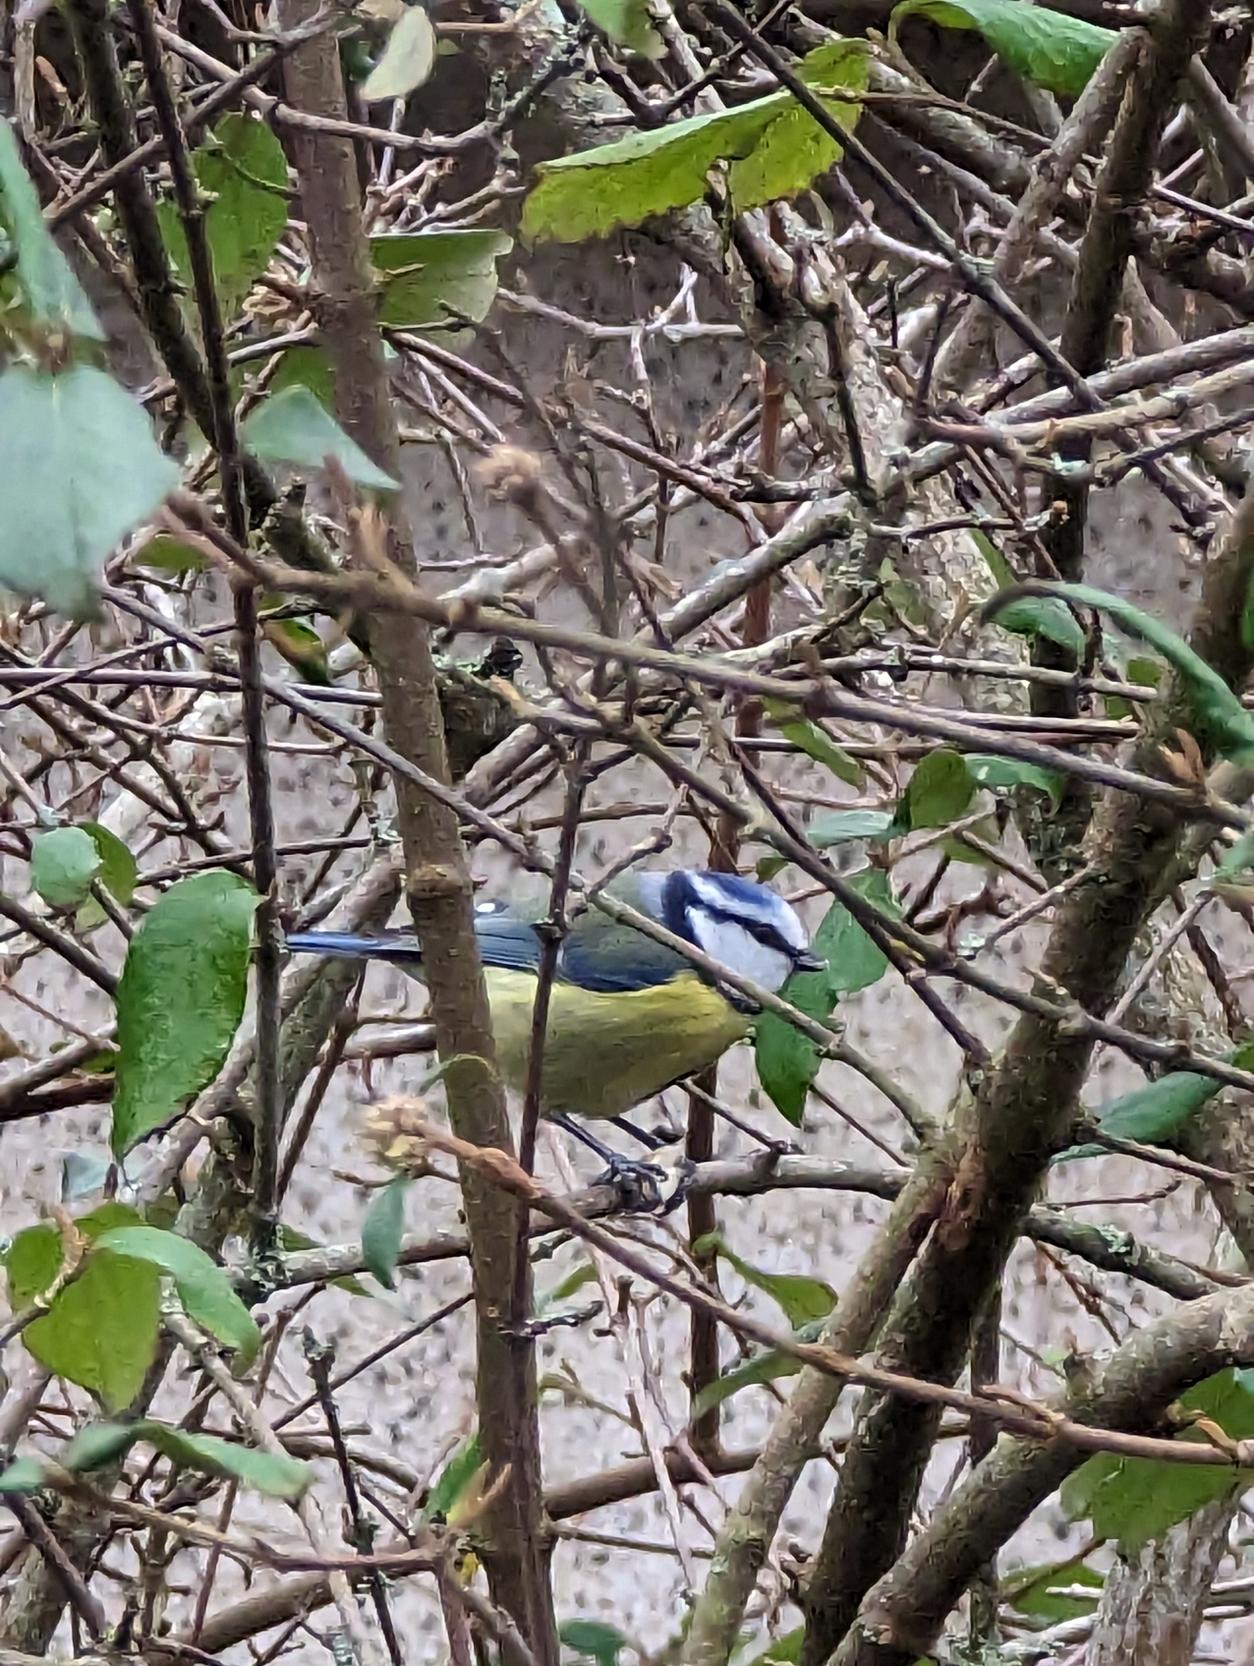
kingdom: Animalia
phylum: Chordata
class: Aves
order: Passeriformes
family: Paridae
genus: Cyanistes
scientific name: Cyanistes caeruleus
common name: Blåmejse
